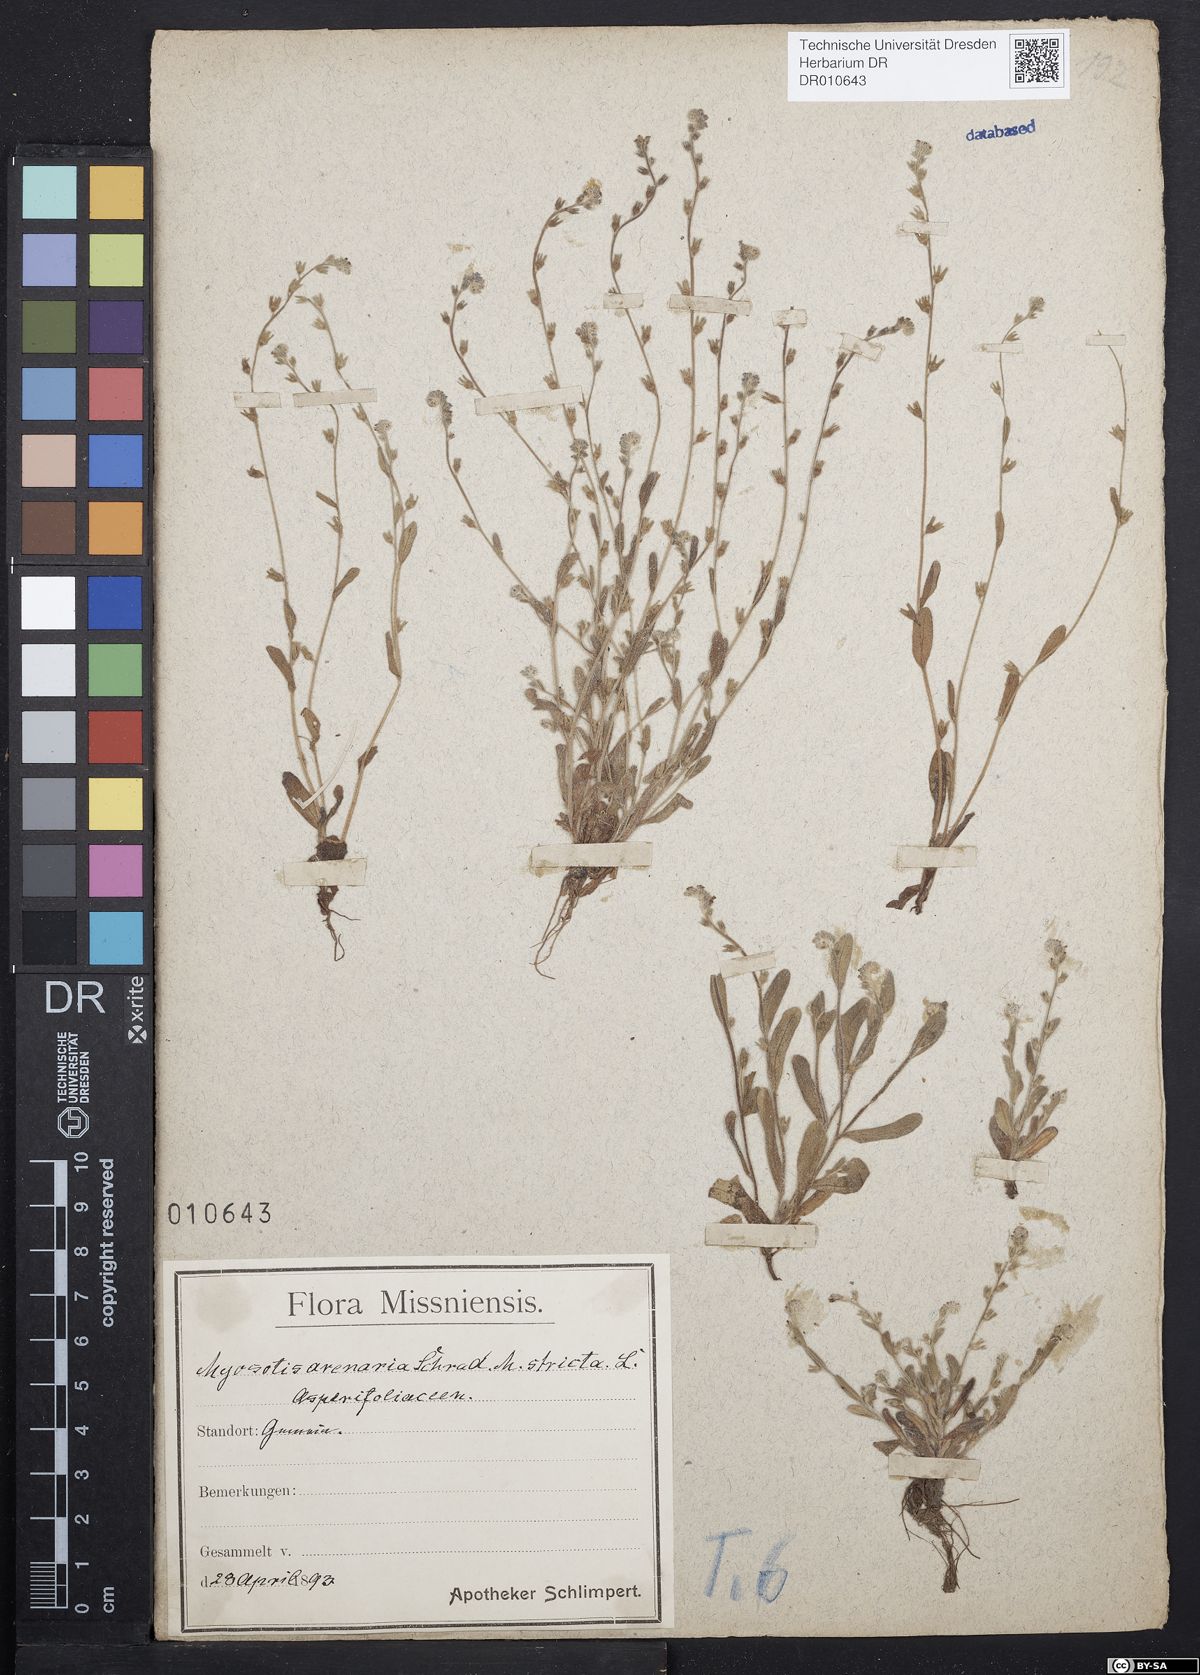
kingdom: Plantae
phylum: Tracheophyta
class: Magnoliopsida
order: Boraginales
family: Boraginaceae
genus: Myosotis
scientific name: Myosotis stricta
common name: Strict forget-me-not
